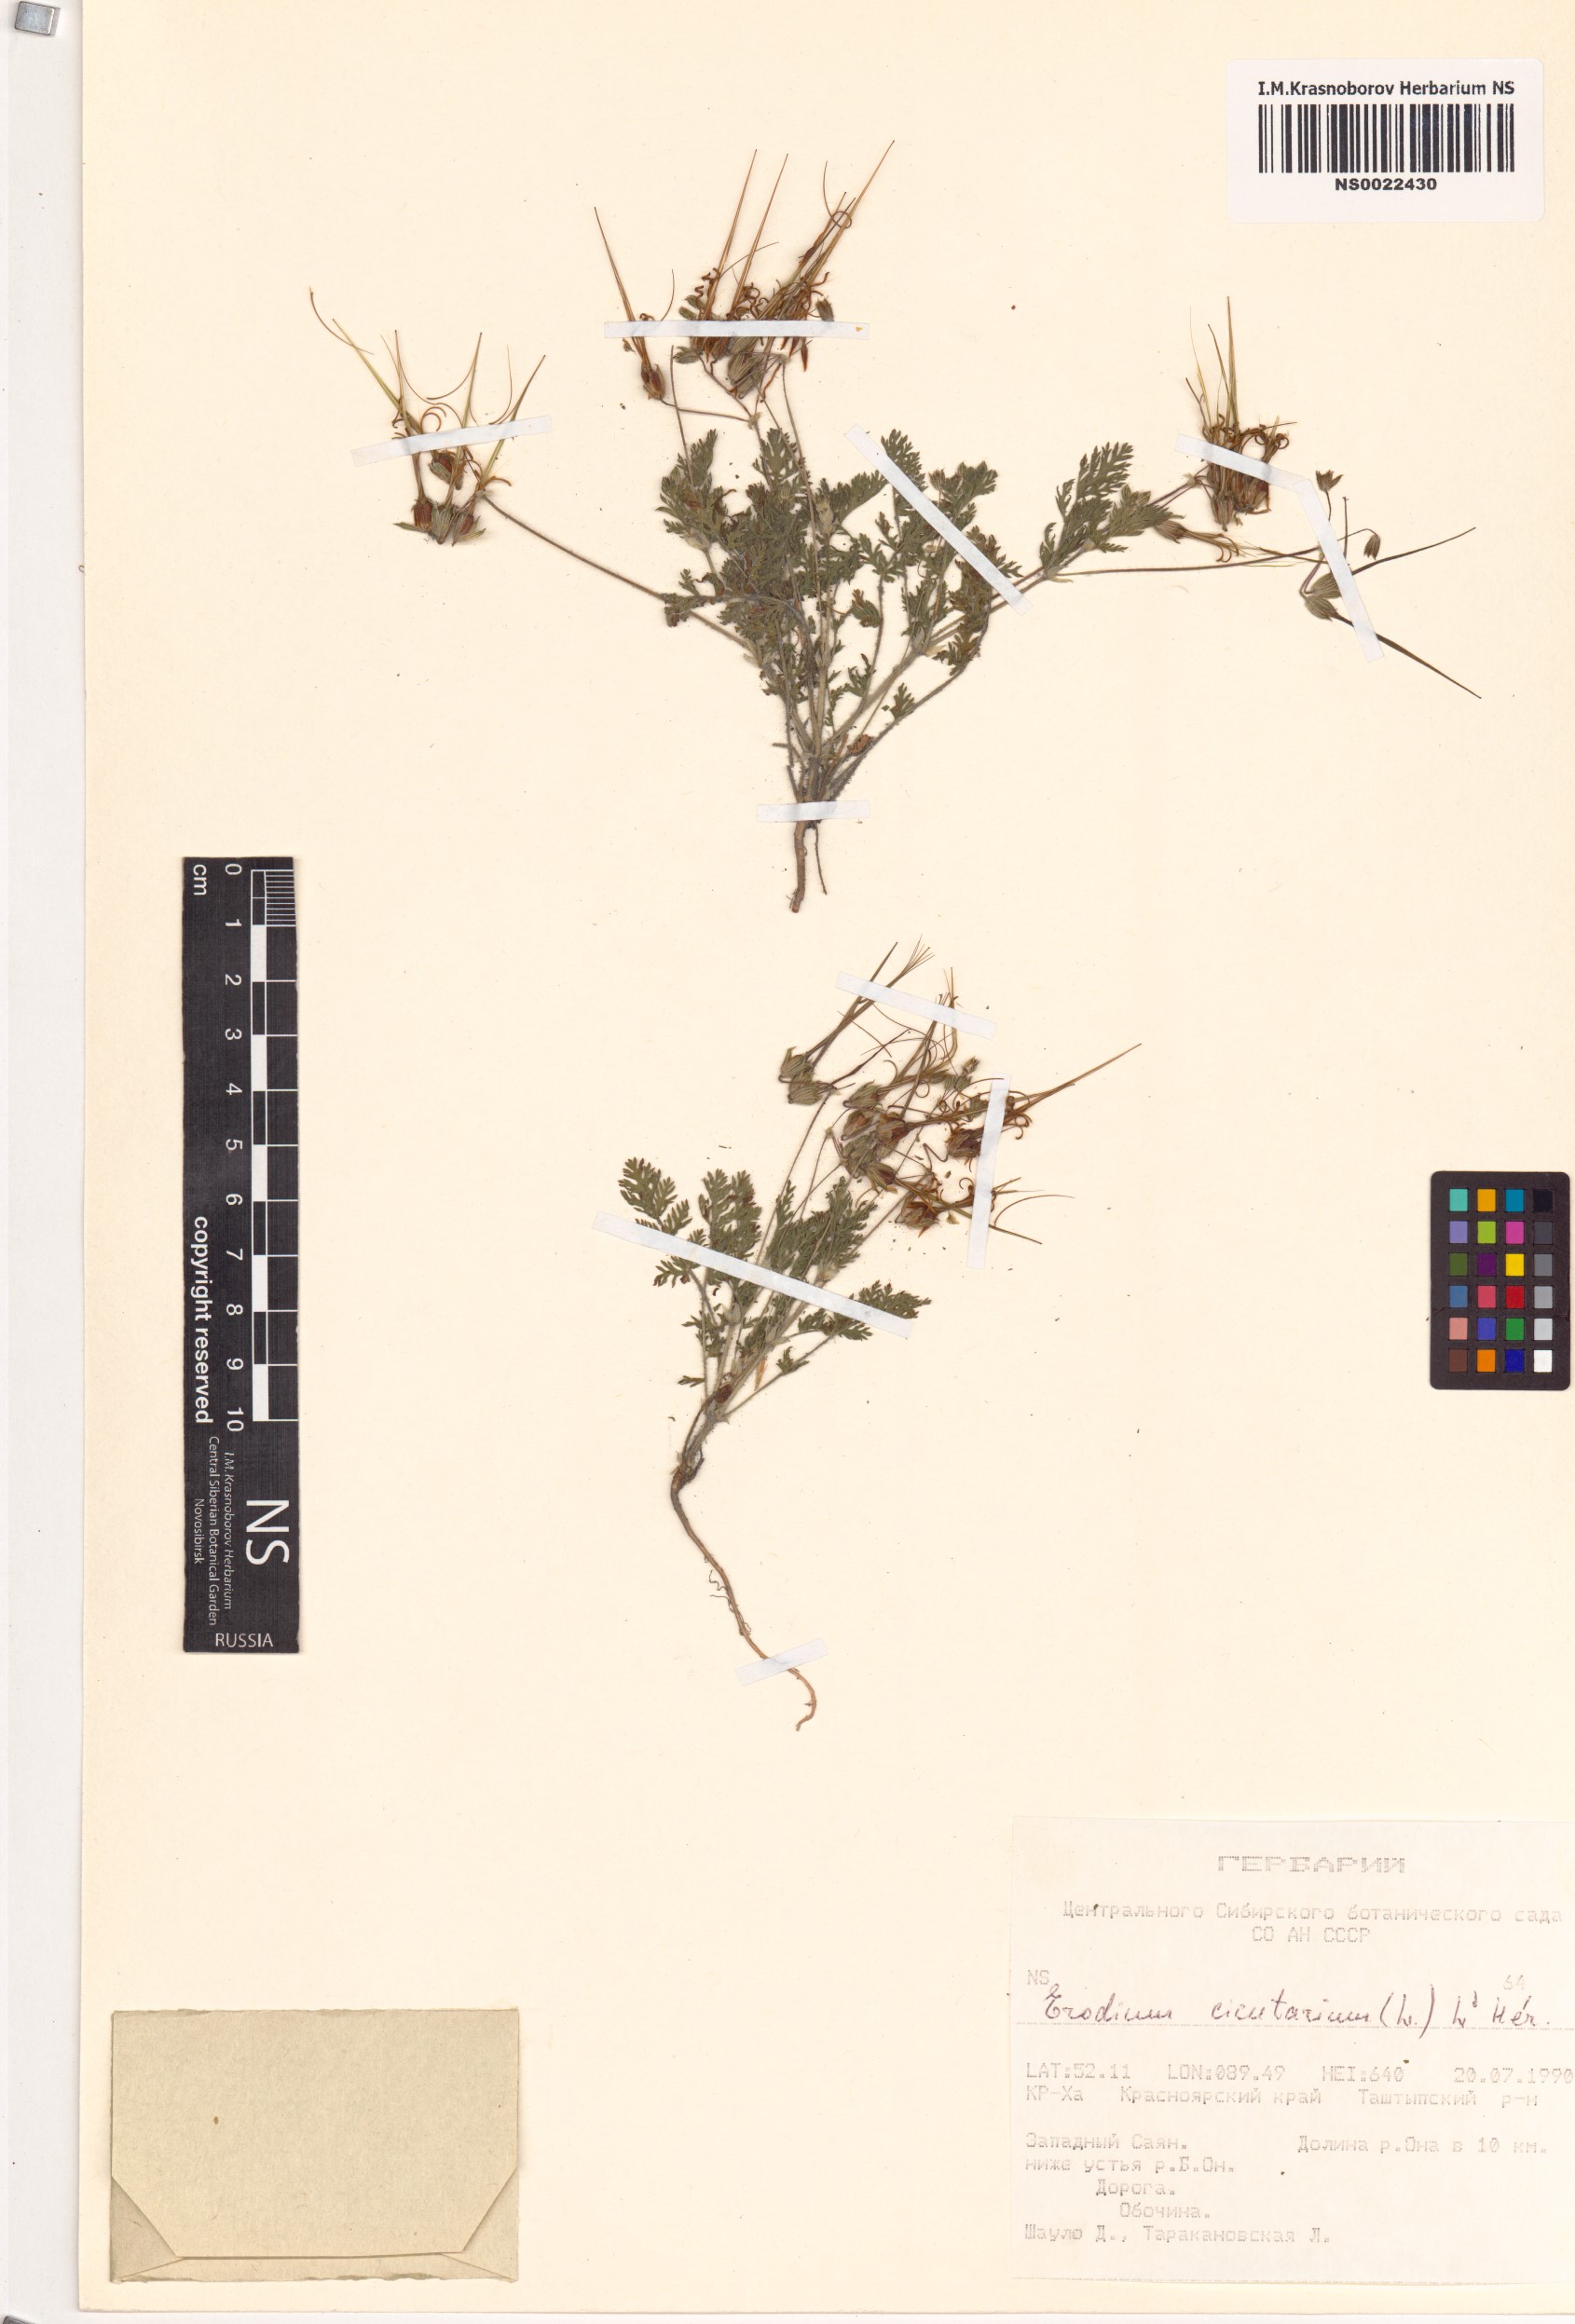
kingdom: Plantae
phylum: Tracheophyta
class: Magnoliopsida
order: Geraniales
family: Geraniaceae
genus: Erodium
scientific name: Erodium cicutarium
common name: Common stork's-bill
